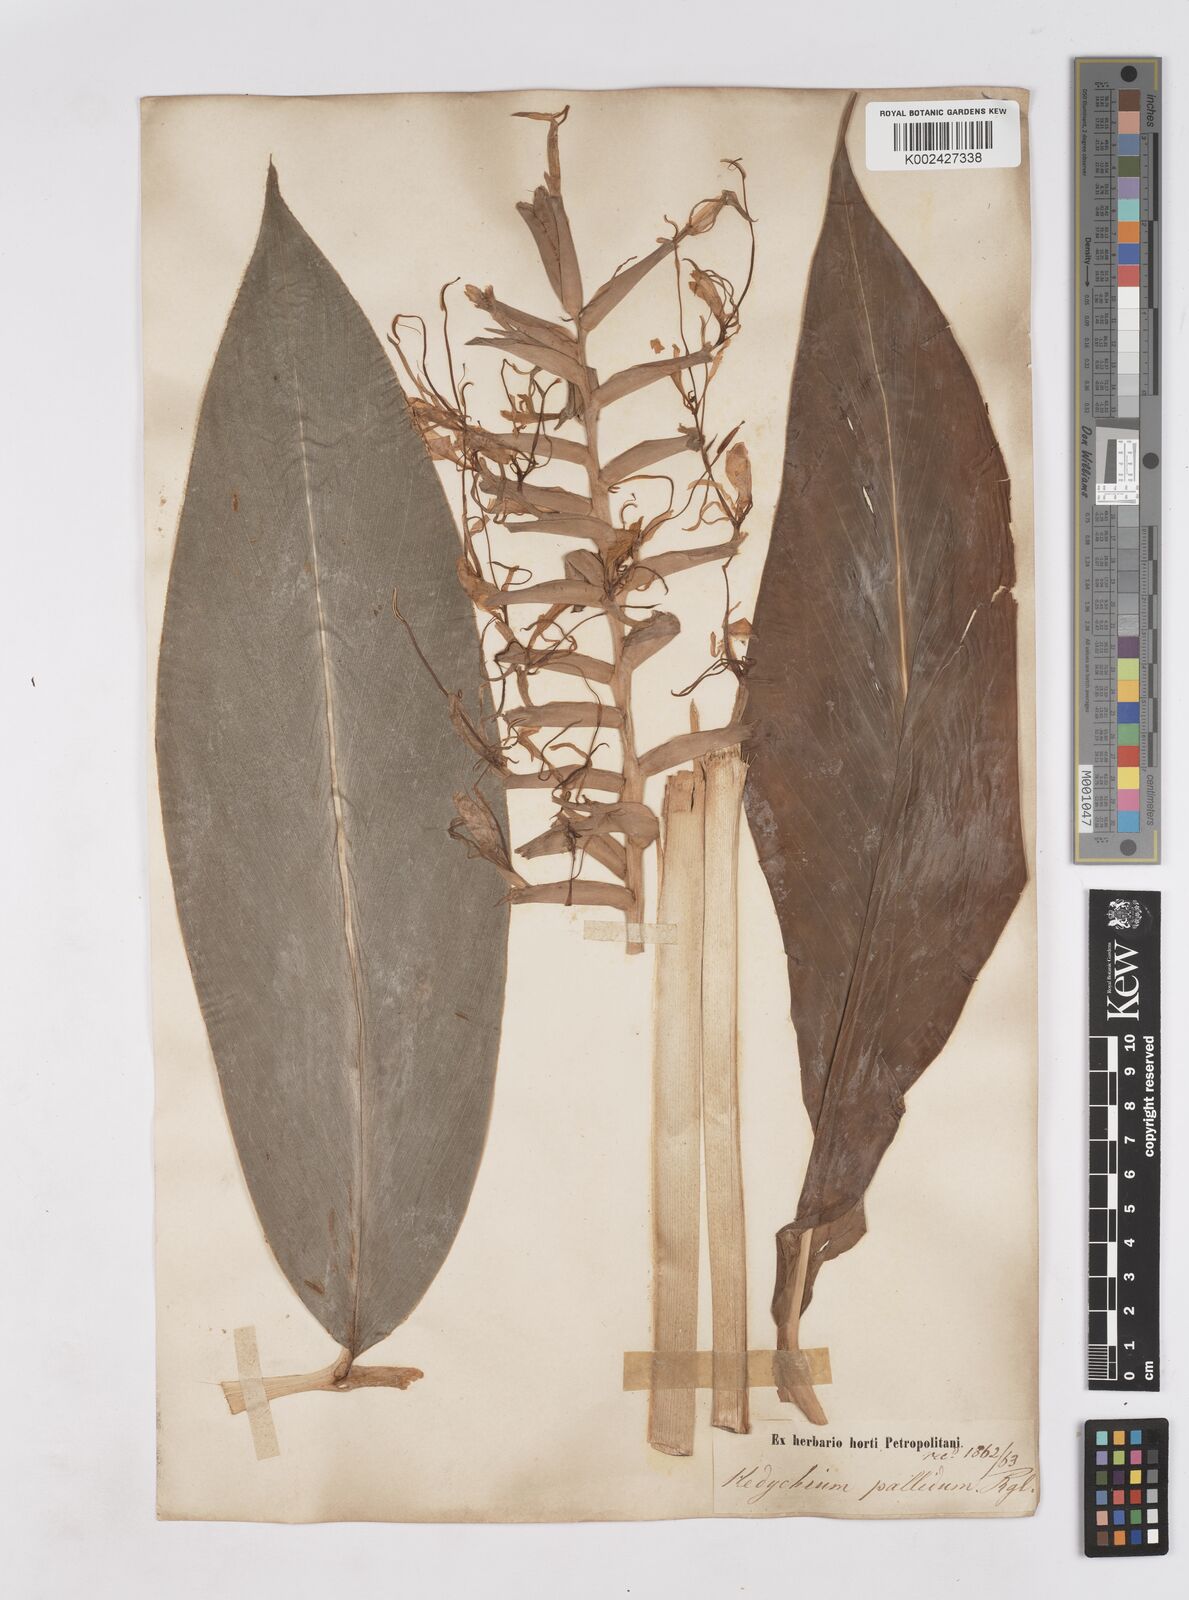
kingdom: Plantae
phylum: Tracheophyta
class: Liliopsida
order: Zingiberales
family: Zingiberaceae
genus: Hedychium
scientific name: Hedychium gardnerianum
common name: Himalayan ginger
